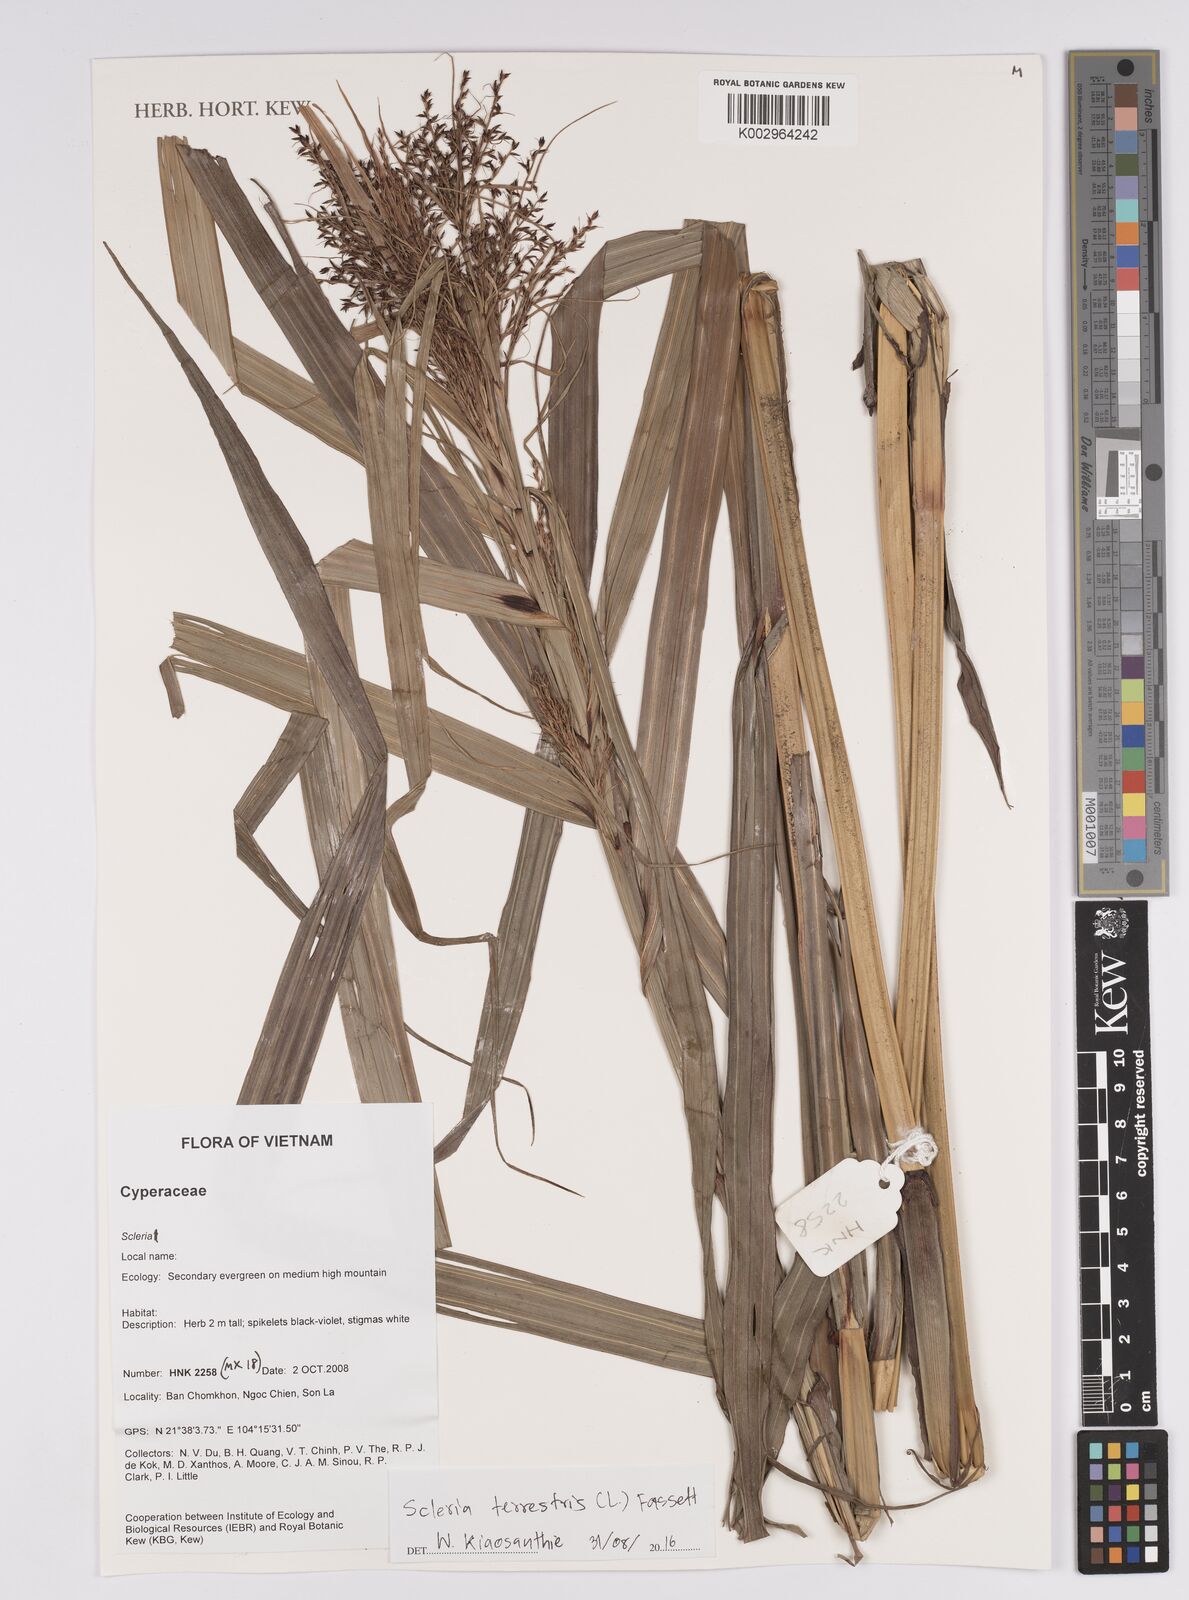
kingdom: Plantae
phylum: Tracheophyta
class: Liliopsida
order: Poales
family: Cyperaceae
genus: Scleria
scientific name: Scleria terrestris
